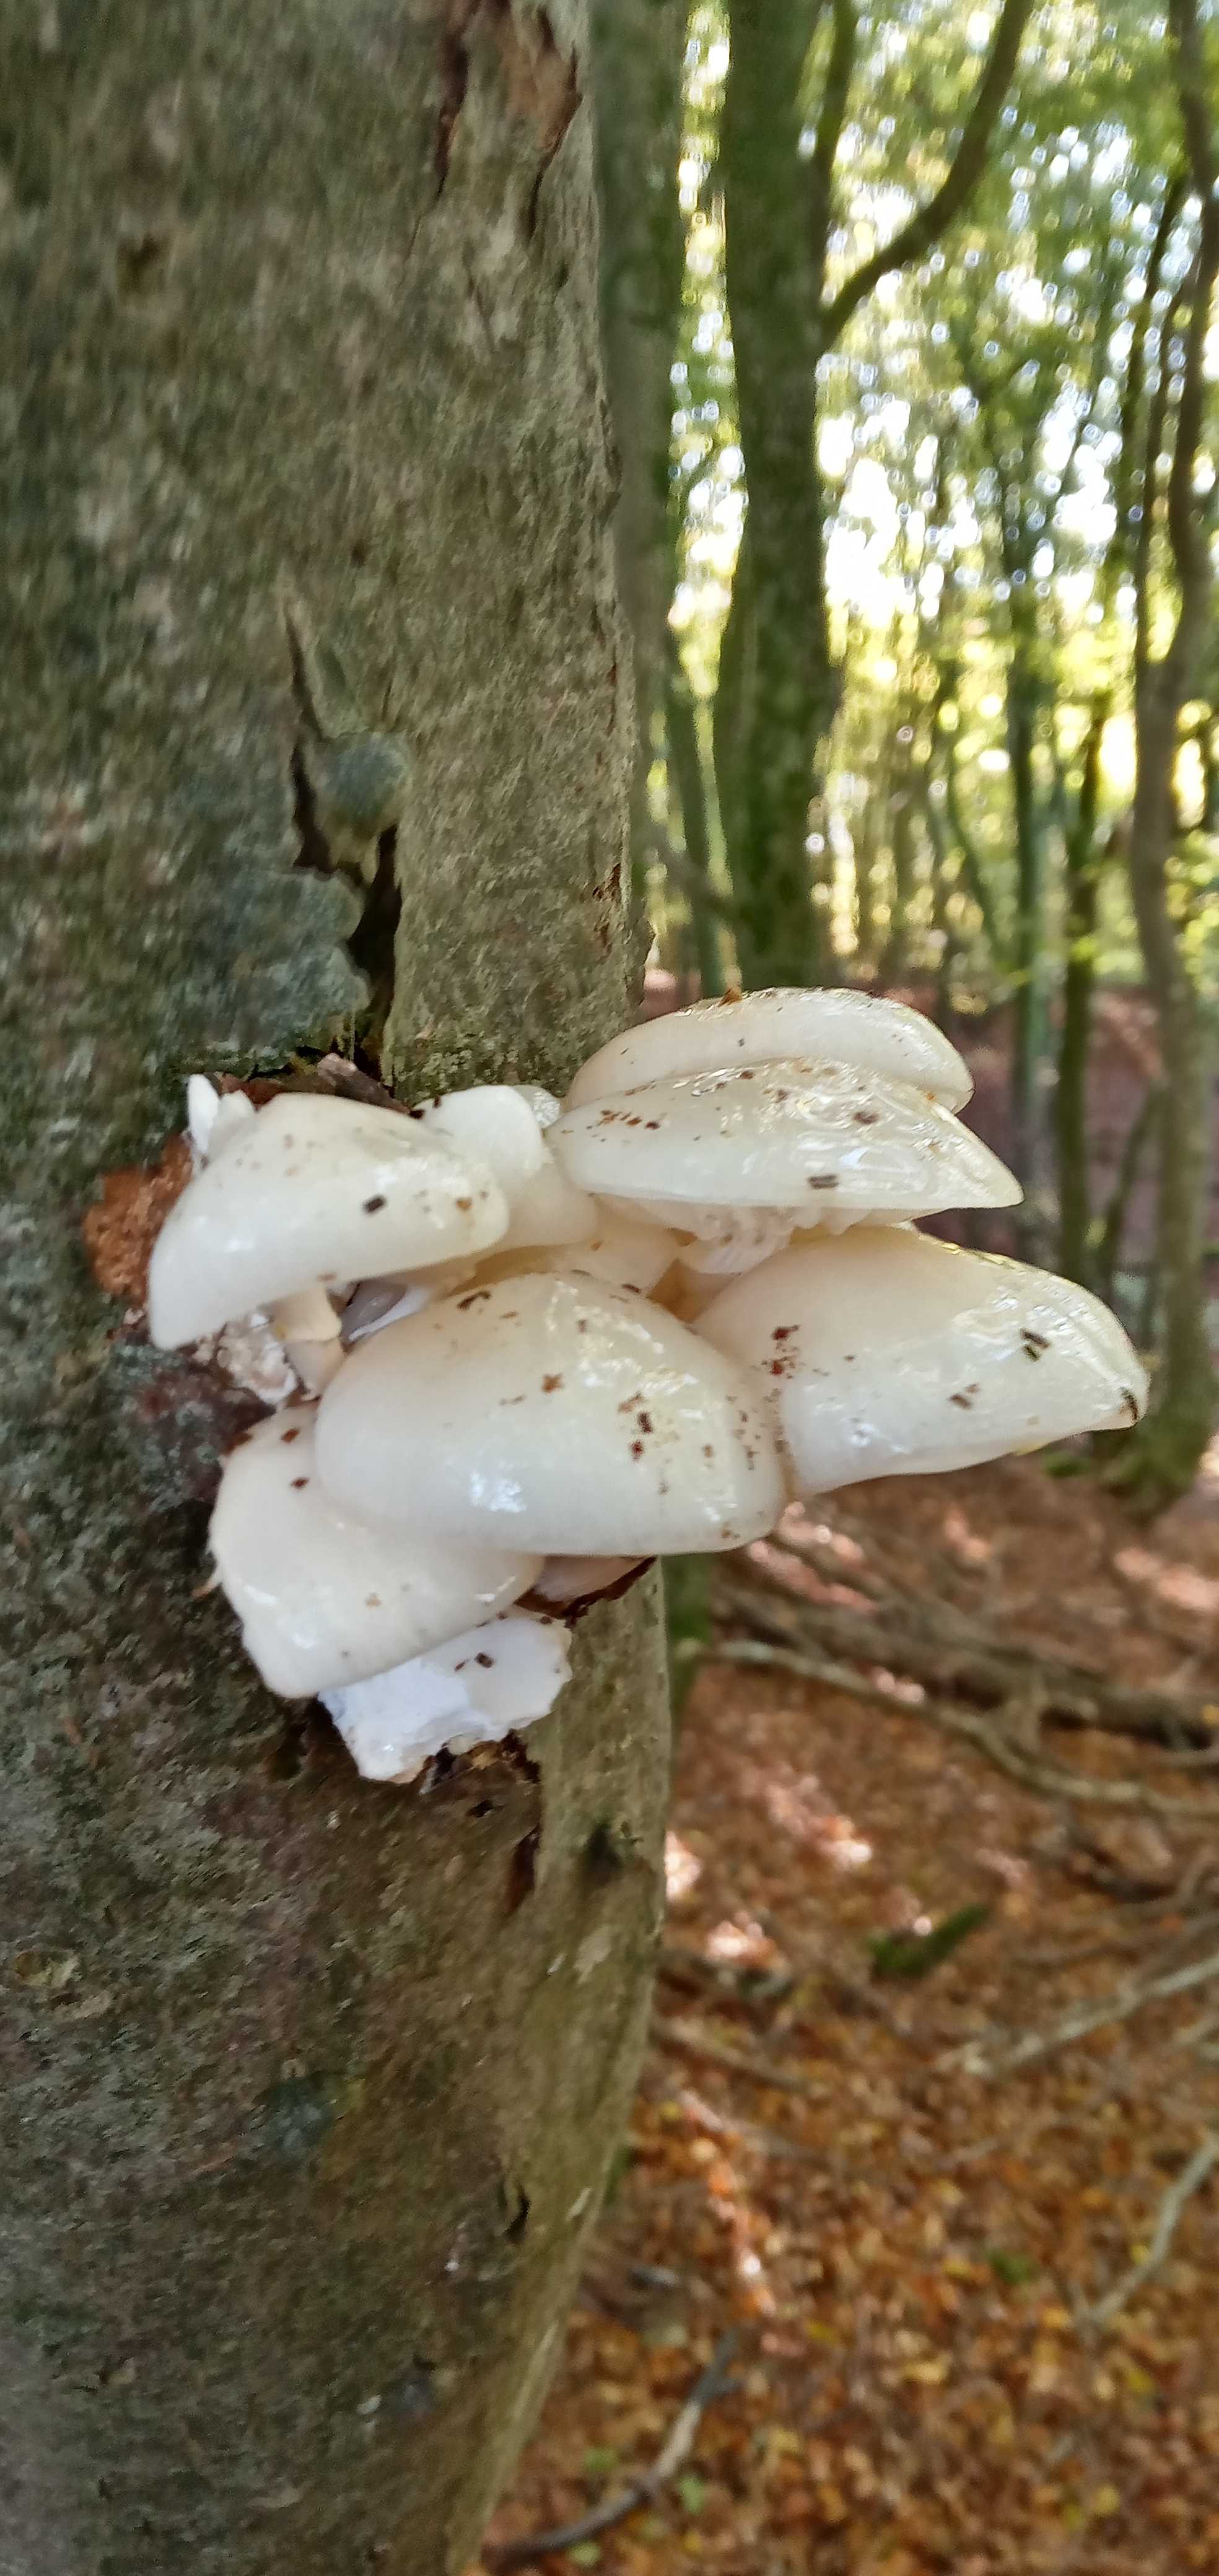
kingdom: Fungi
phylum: Basidiomycota
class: Agaricomycetes
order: Agaricales
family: Physalacriaceae
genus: Mucidula
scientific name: Mucidula mucida
